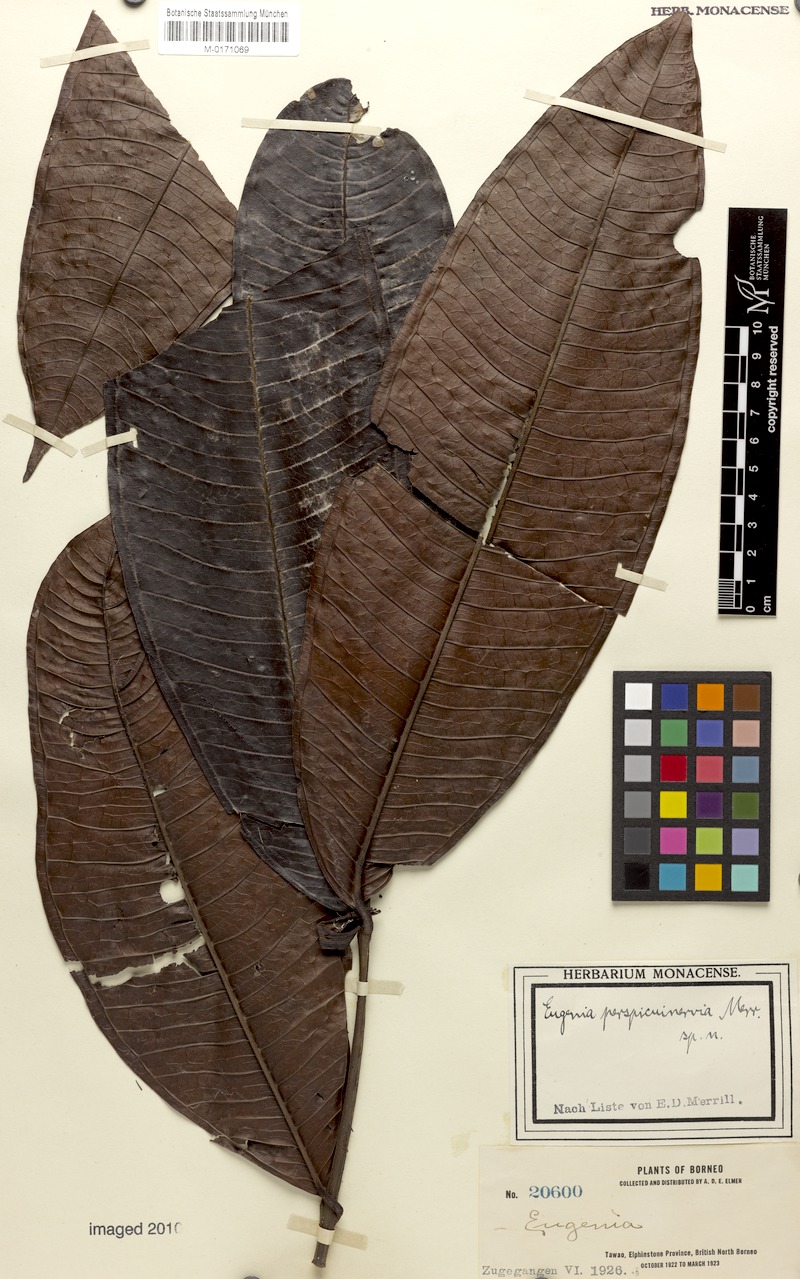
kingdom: Plantae
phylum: Tracheophyta
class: Magnoliopsida
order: Myrtales
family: Myrtaceae
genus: Syzygium
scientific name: Syzygium perspicuinervium
